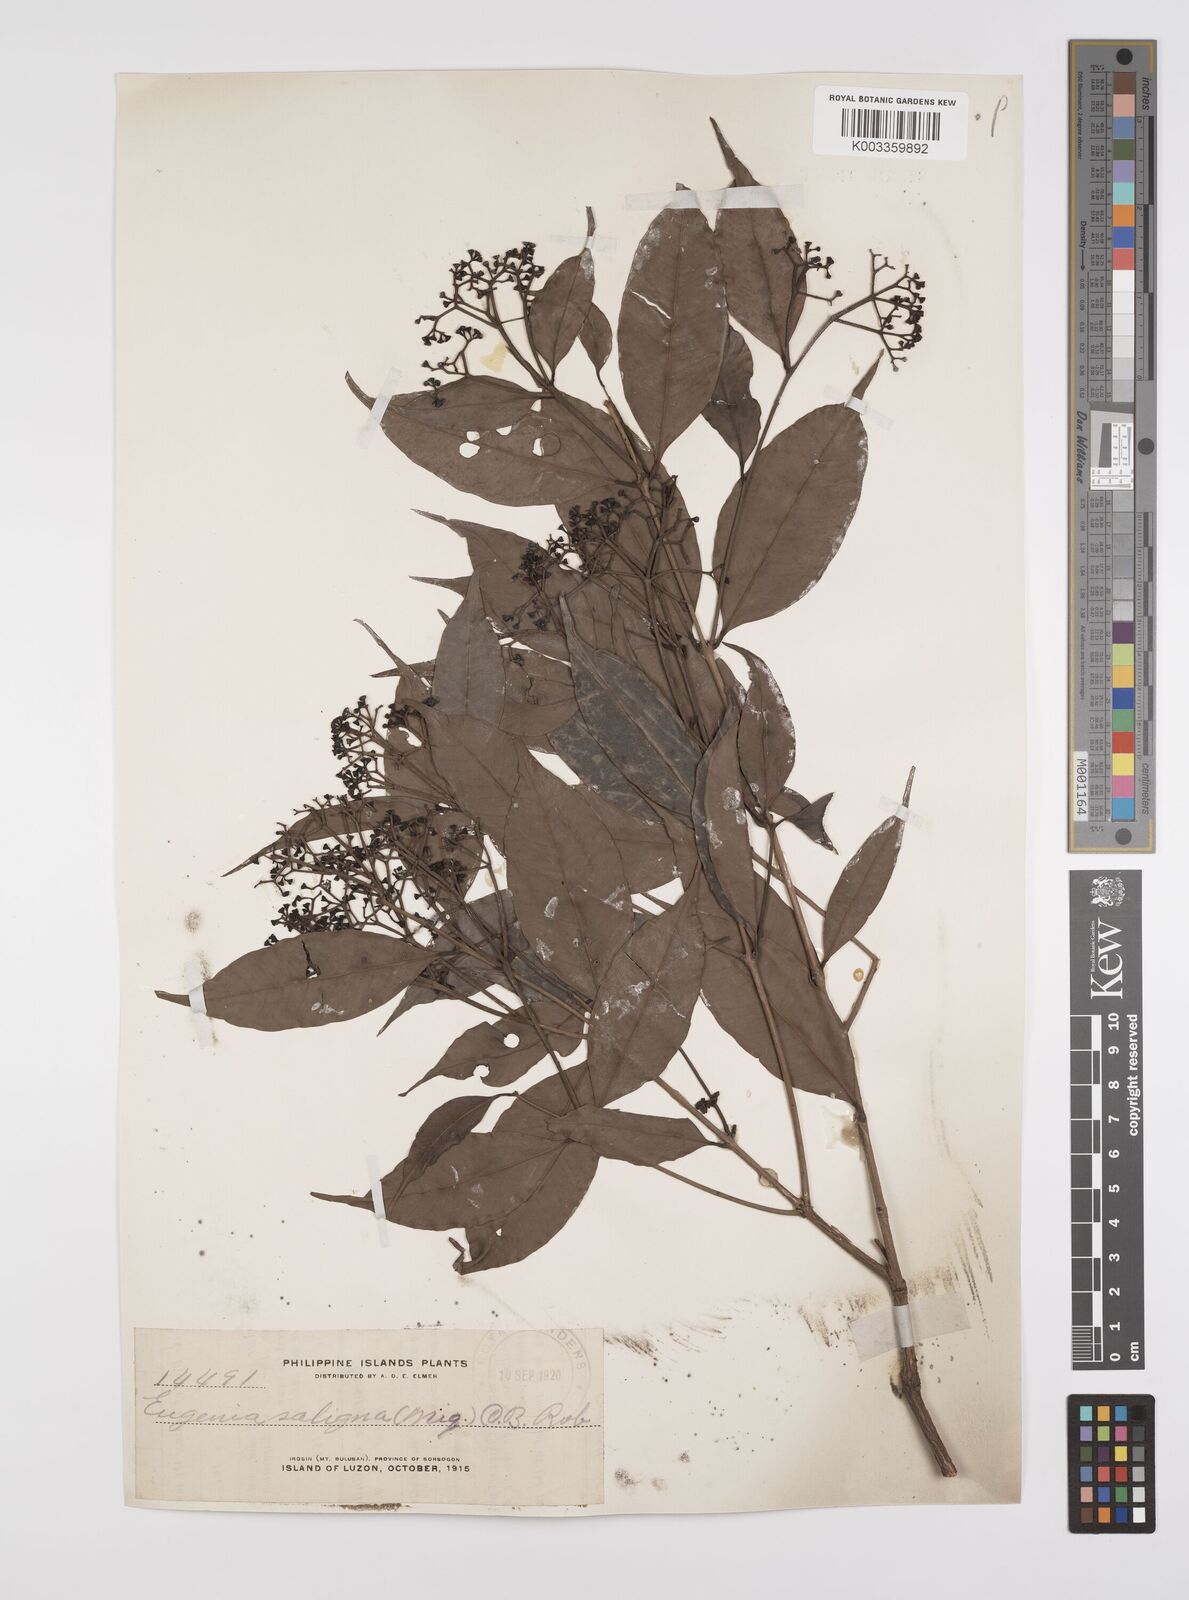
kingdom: Plantae
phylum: Tracheophyta
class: Magnoliopsida
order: Myrtales
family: Myrtaceae
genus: Syzygium
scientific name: Syzygium acuminatissimum
